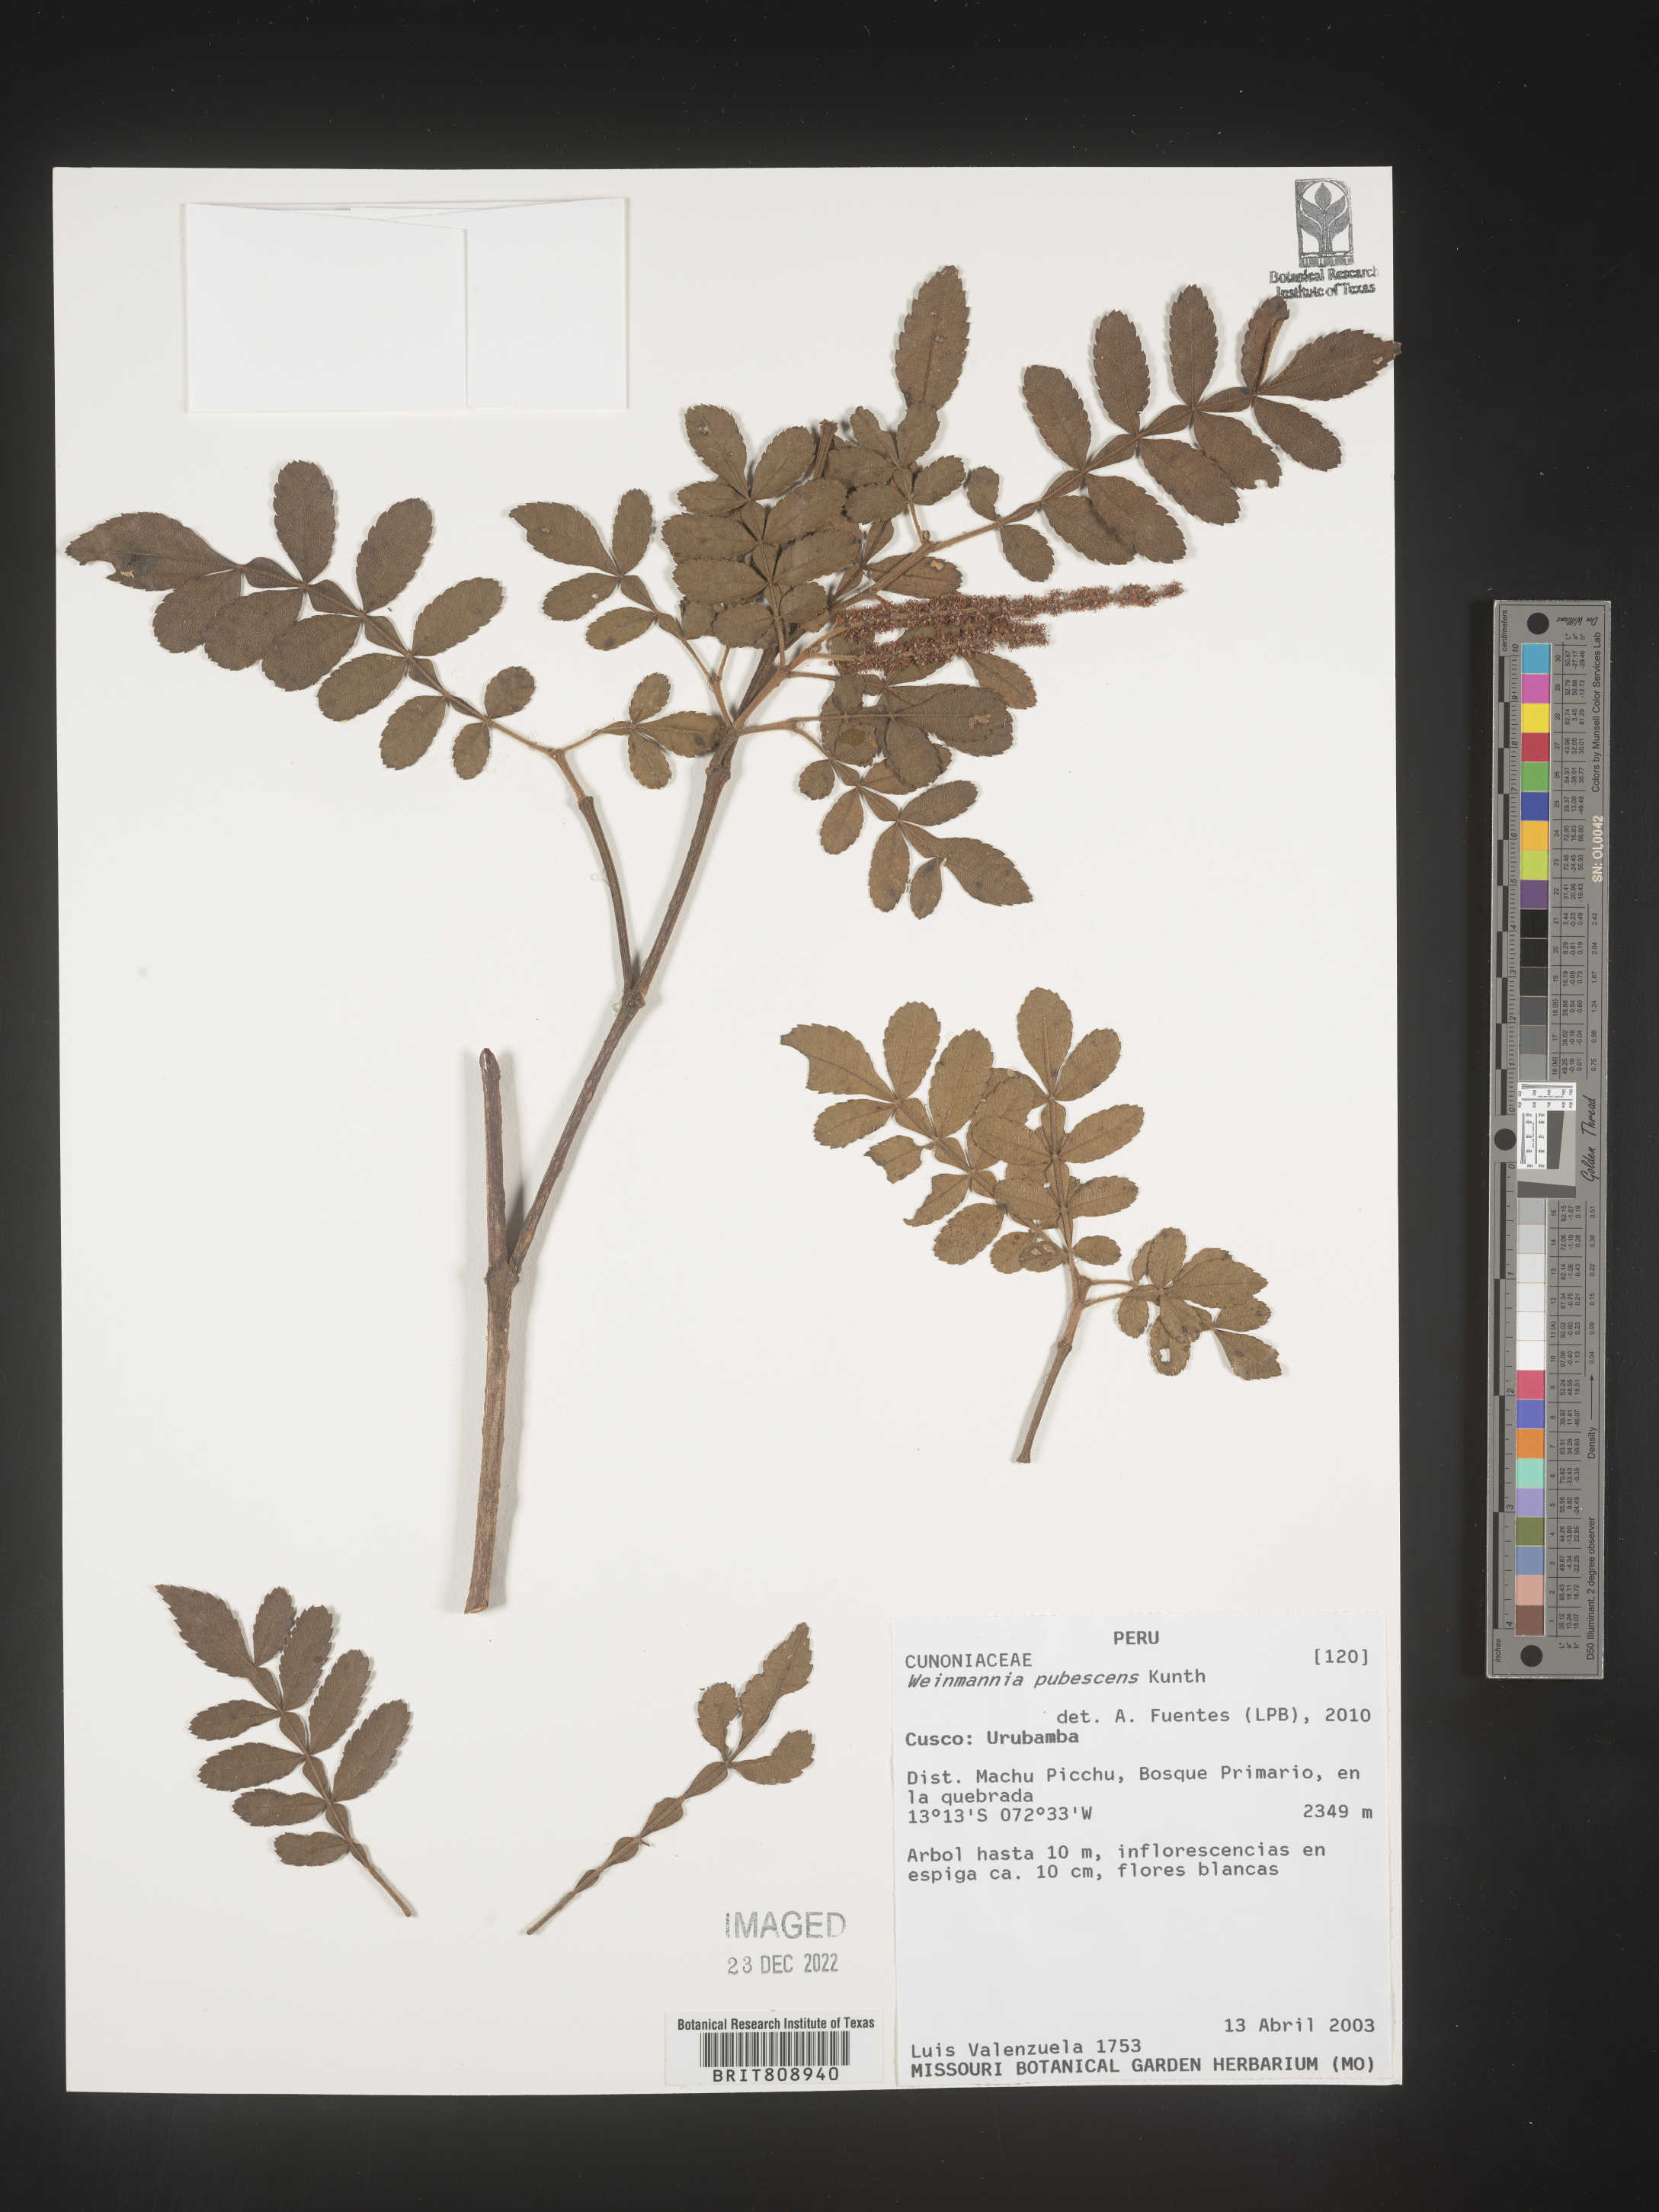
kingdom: Plantae
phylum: Tracheophyta
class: Magnoliopsida
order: Oxalidales
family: Cunoniaceae
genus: Weinmannia
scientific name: Weinmannia
